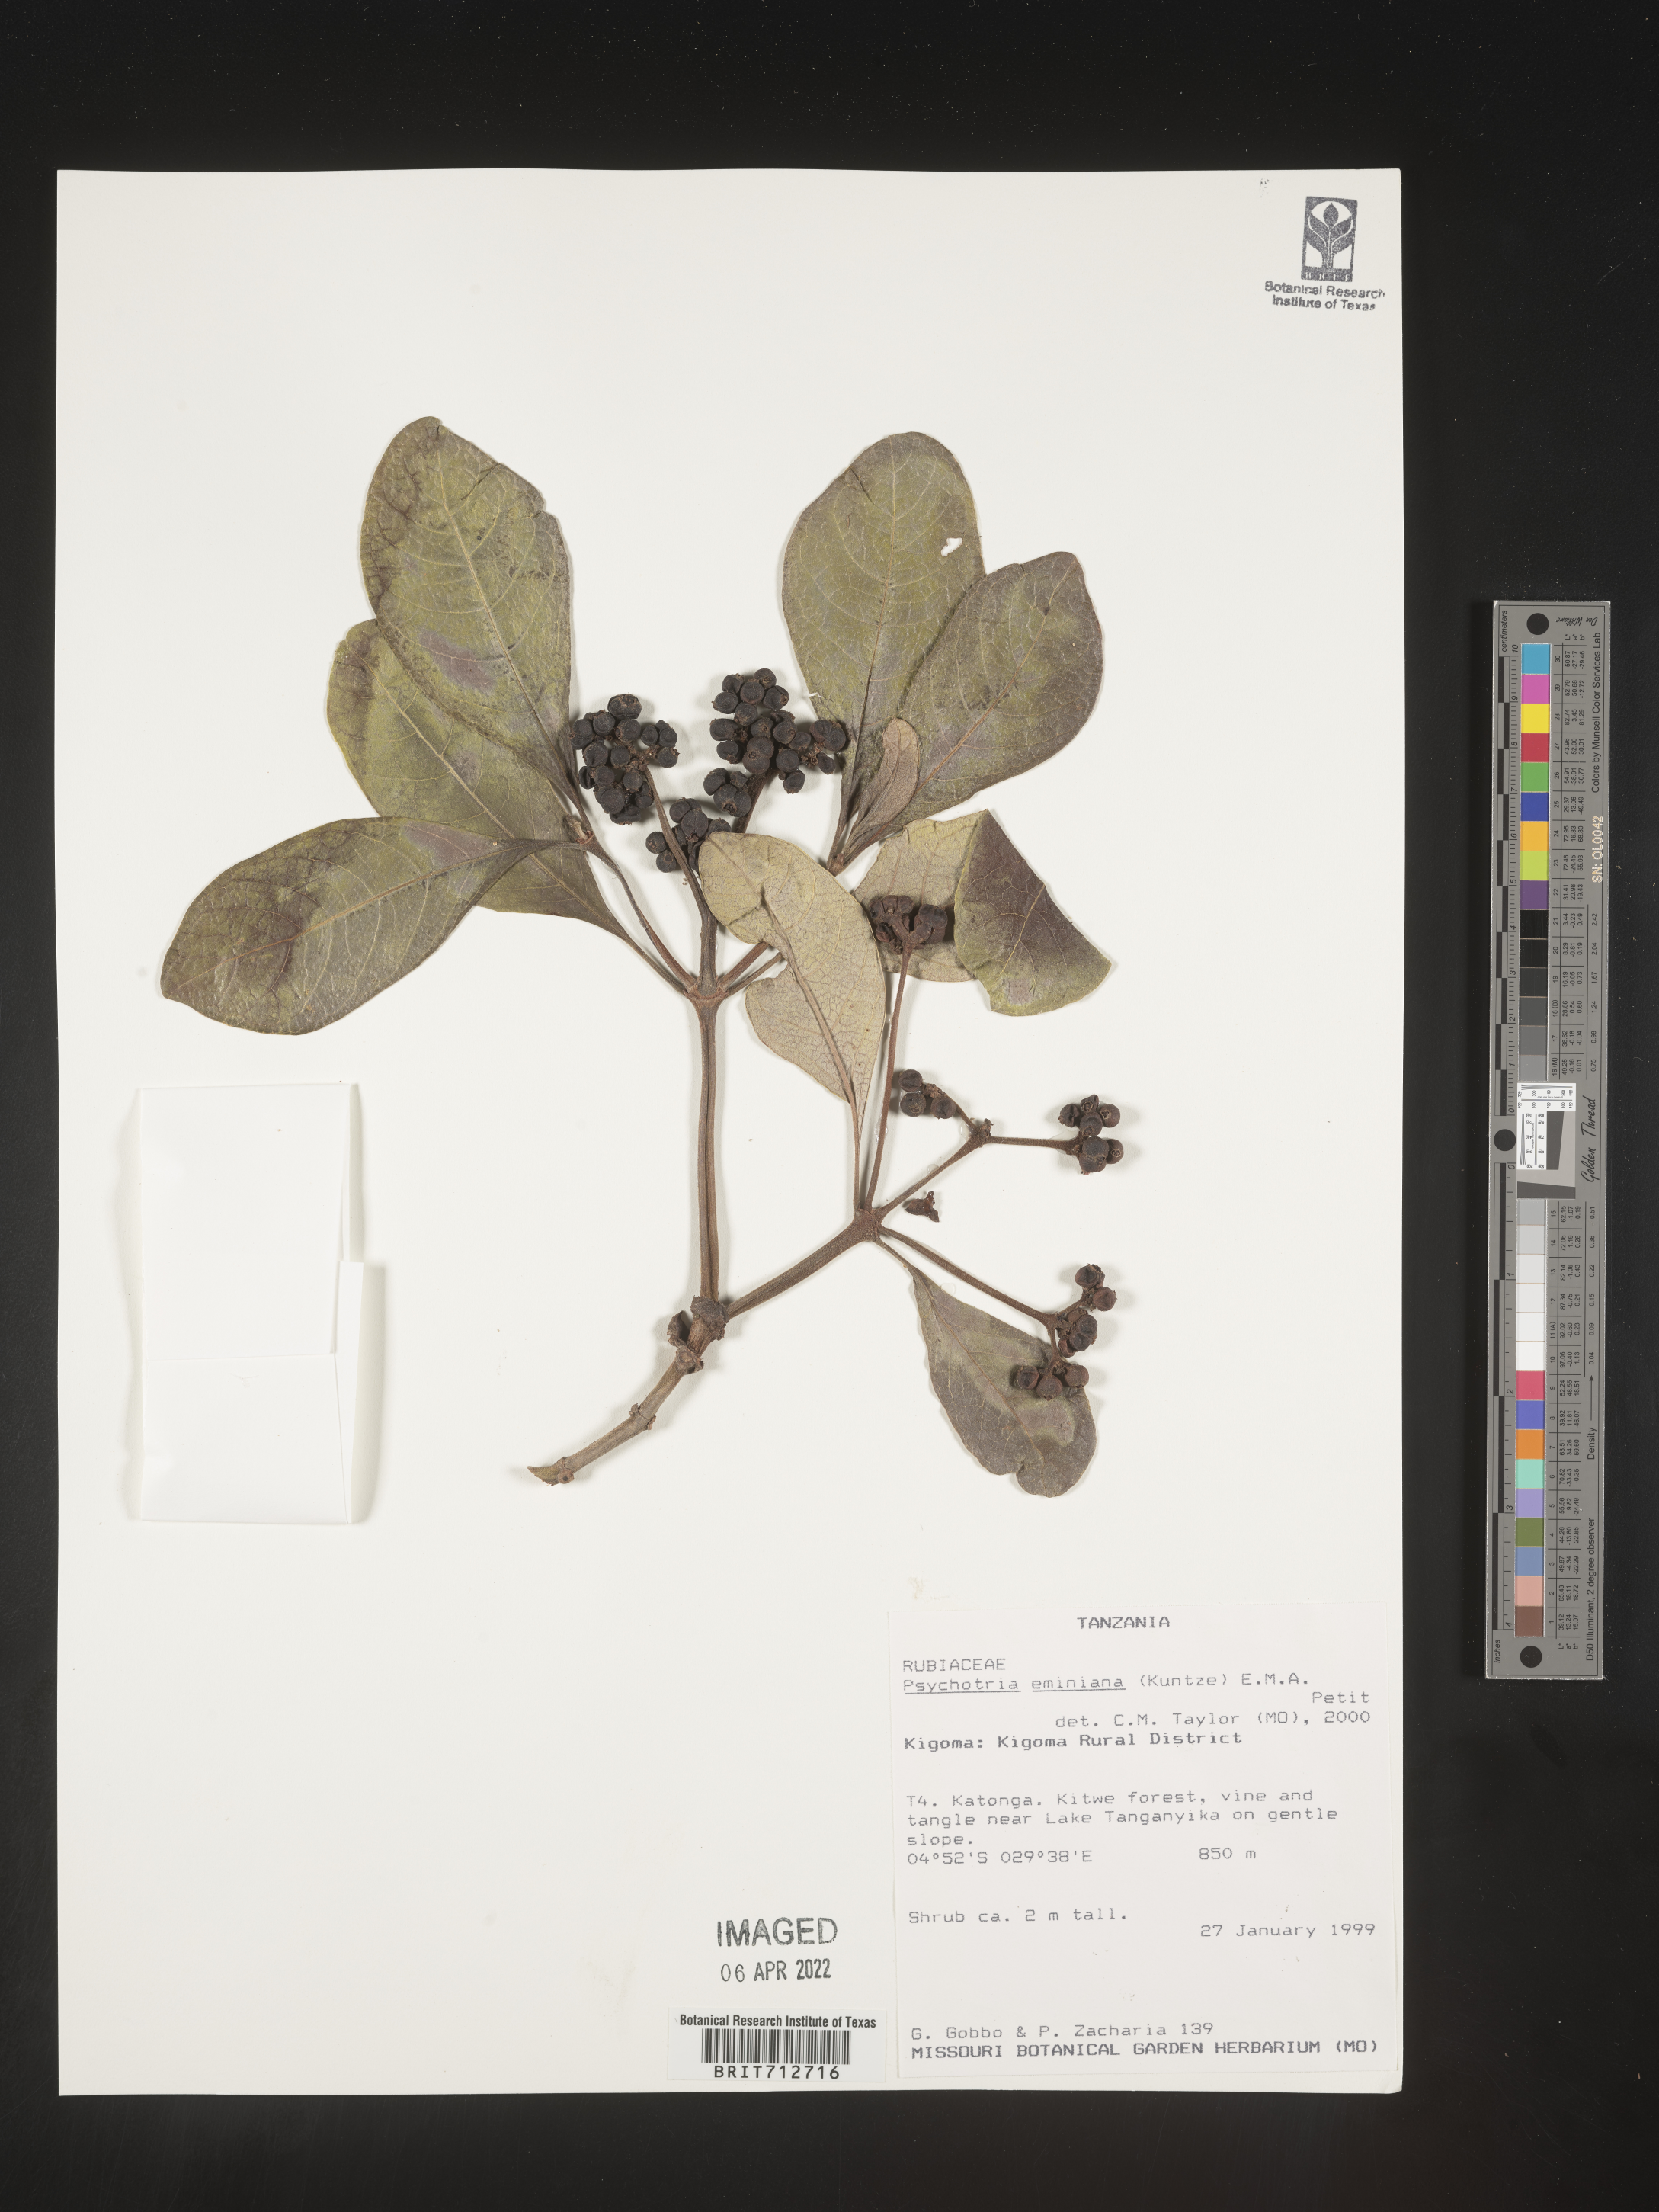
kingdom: Plantae
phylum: Tracheophyta
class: Magnoliopsida
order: Gentianales
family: Rubiaceae
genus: Psychotria
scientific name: Psychotria eminiana
